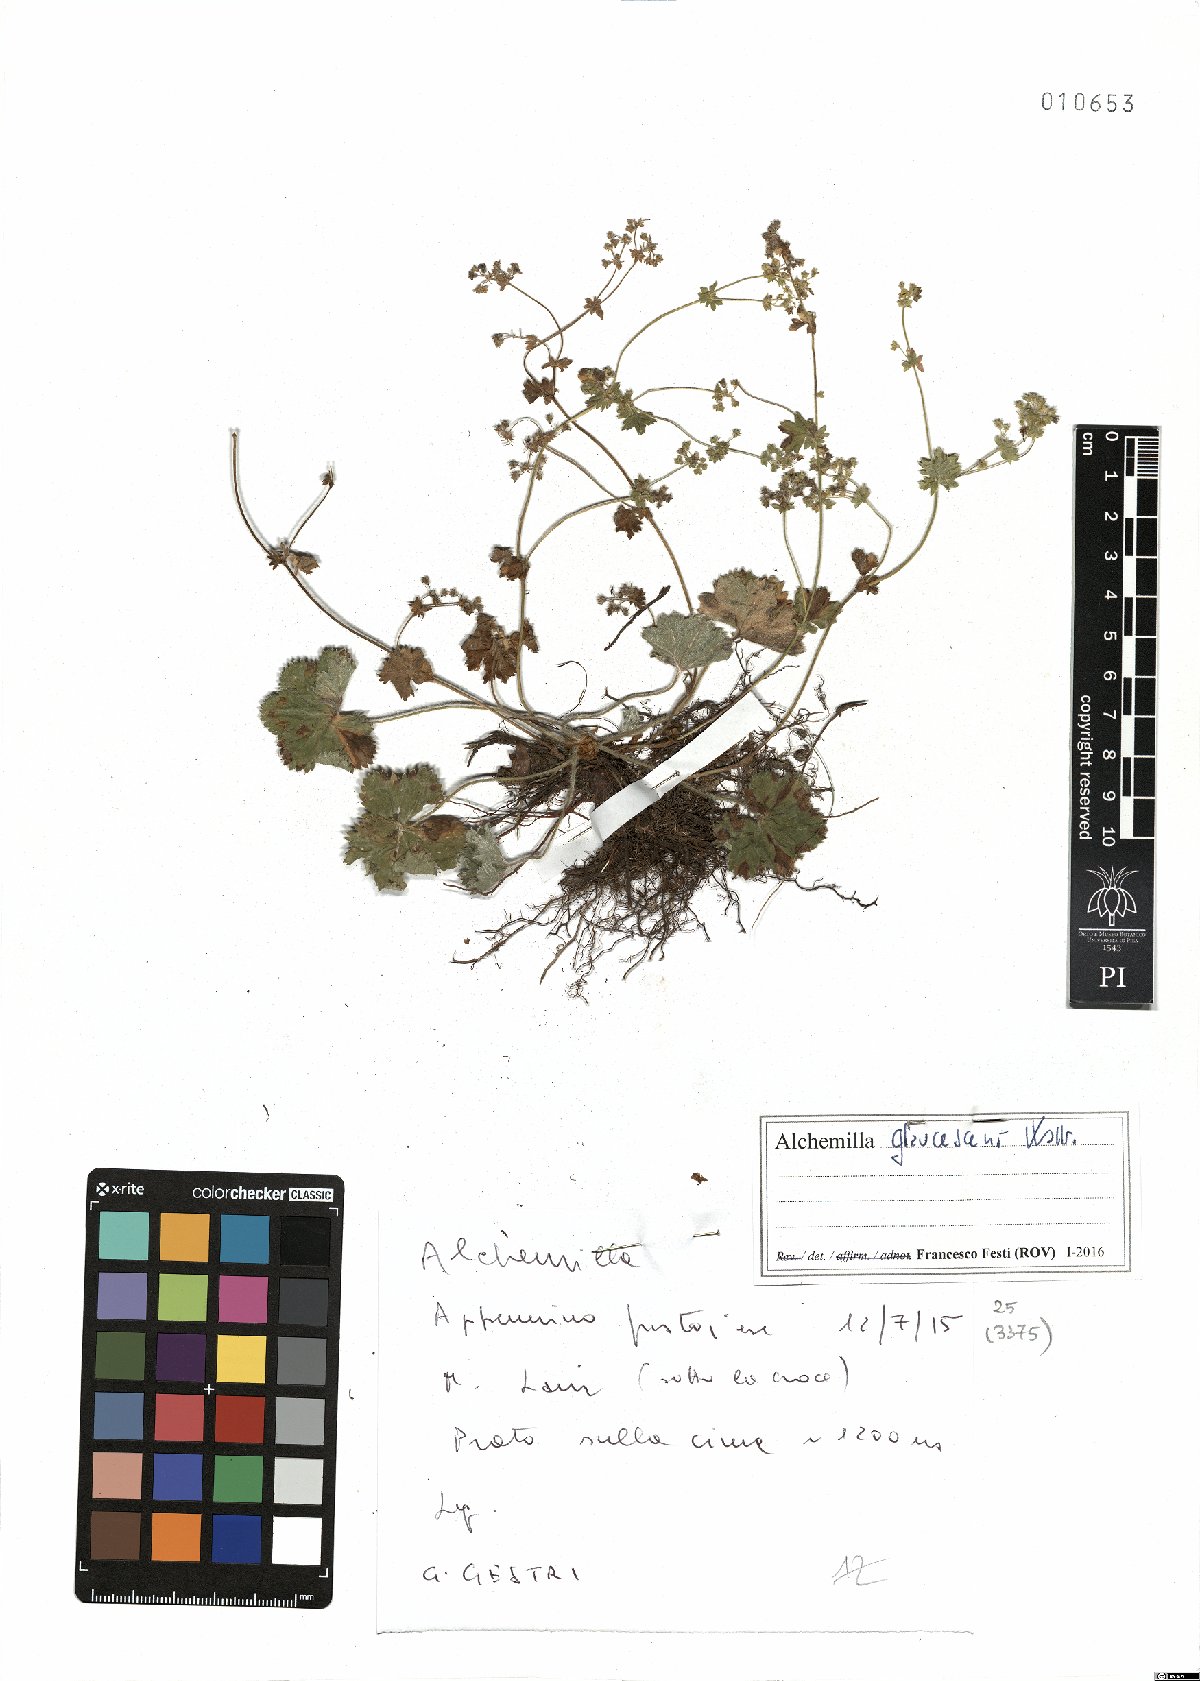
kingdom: Plantae
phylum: Tracheophyta
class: Magnoliopsida
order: Rosales
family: Rosaceae
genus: Alchemilla
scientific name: Alchemilla glaucescens
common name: Silky lady's mantle
